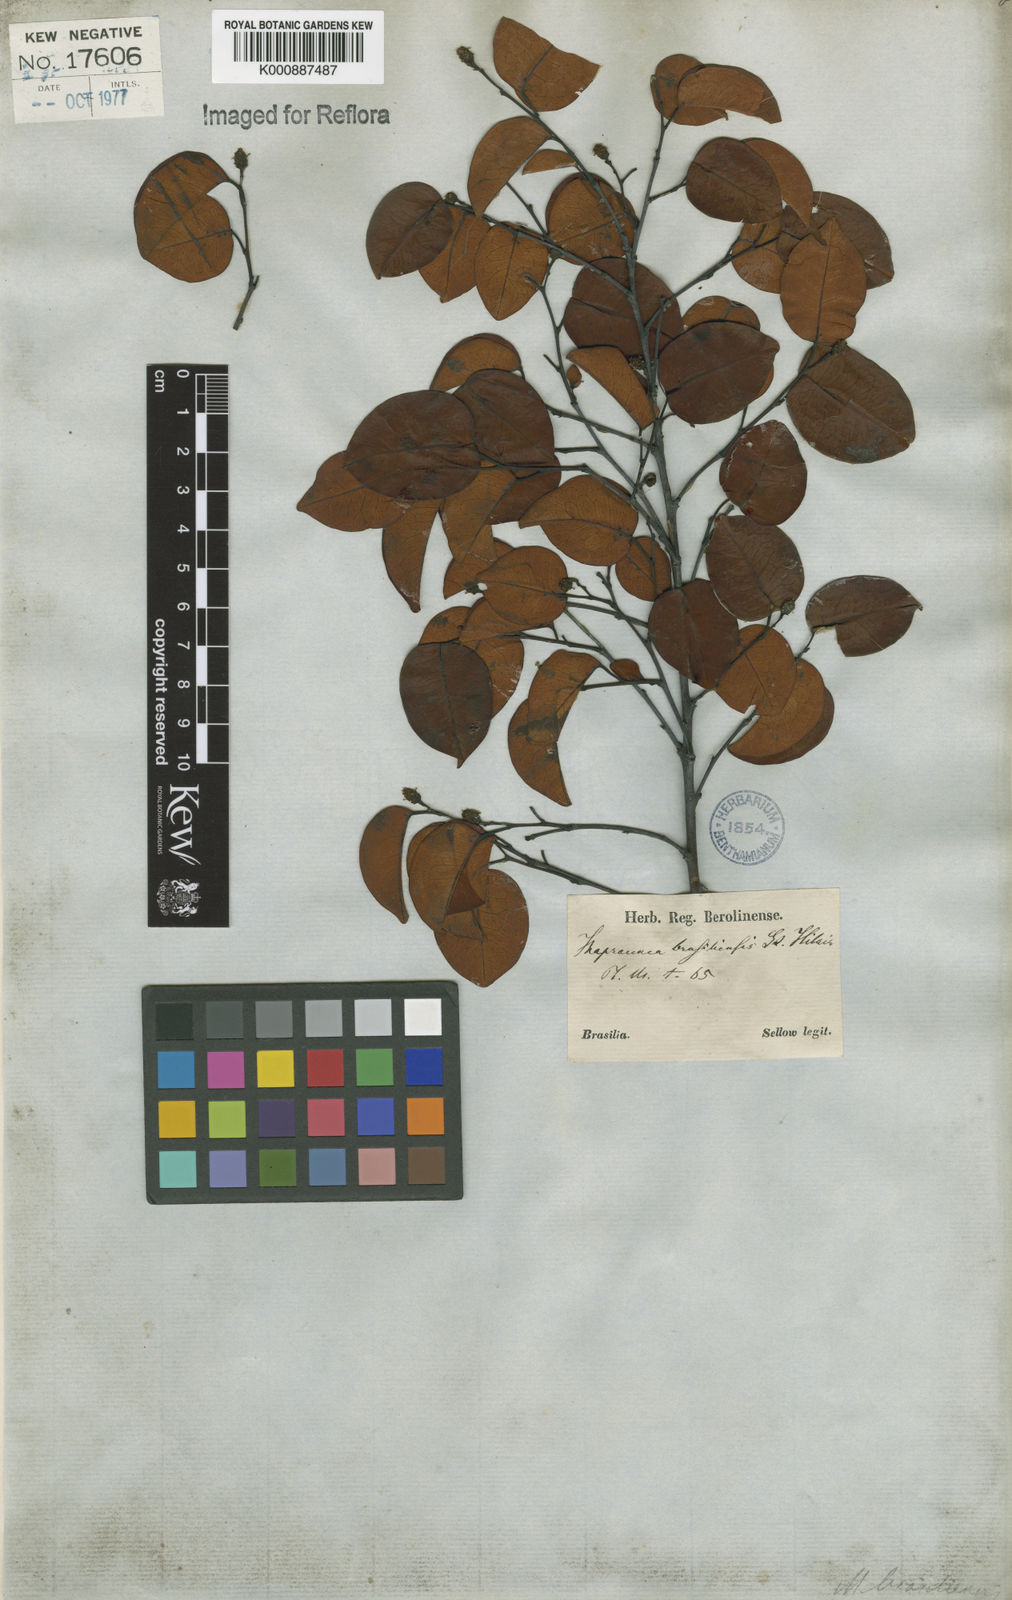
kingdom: Plantae
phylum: Tracheophyta
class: Magnoliopsida
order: Malpighiales
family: Euphorbiaceae
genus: Maprounea
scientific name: Maprounea brasiliensis
